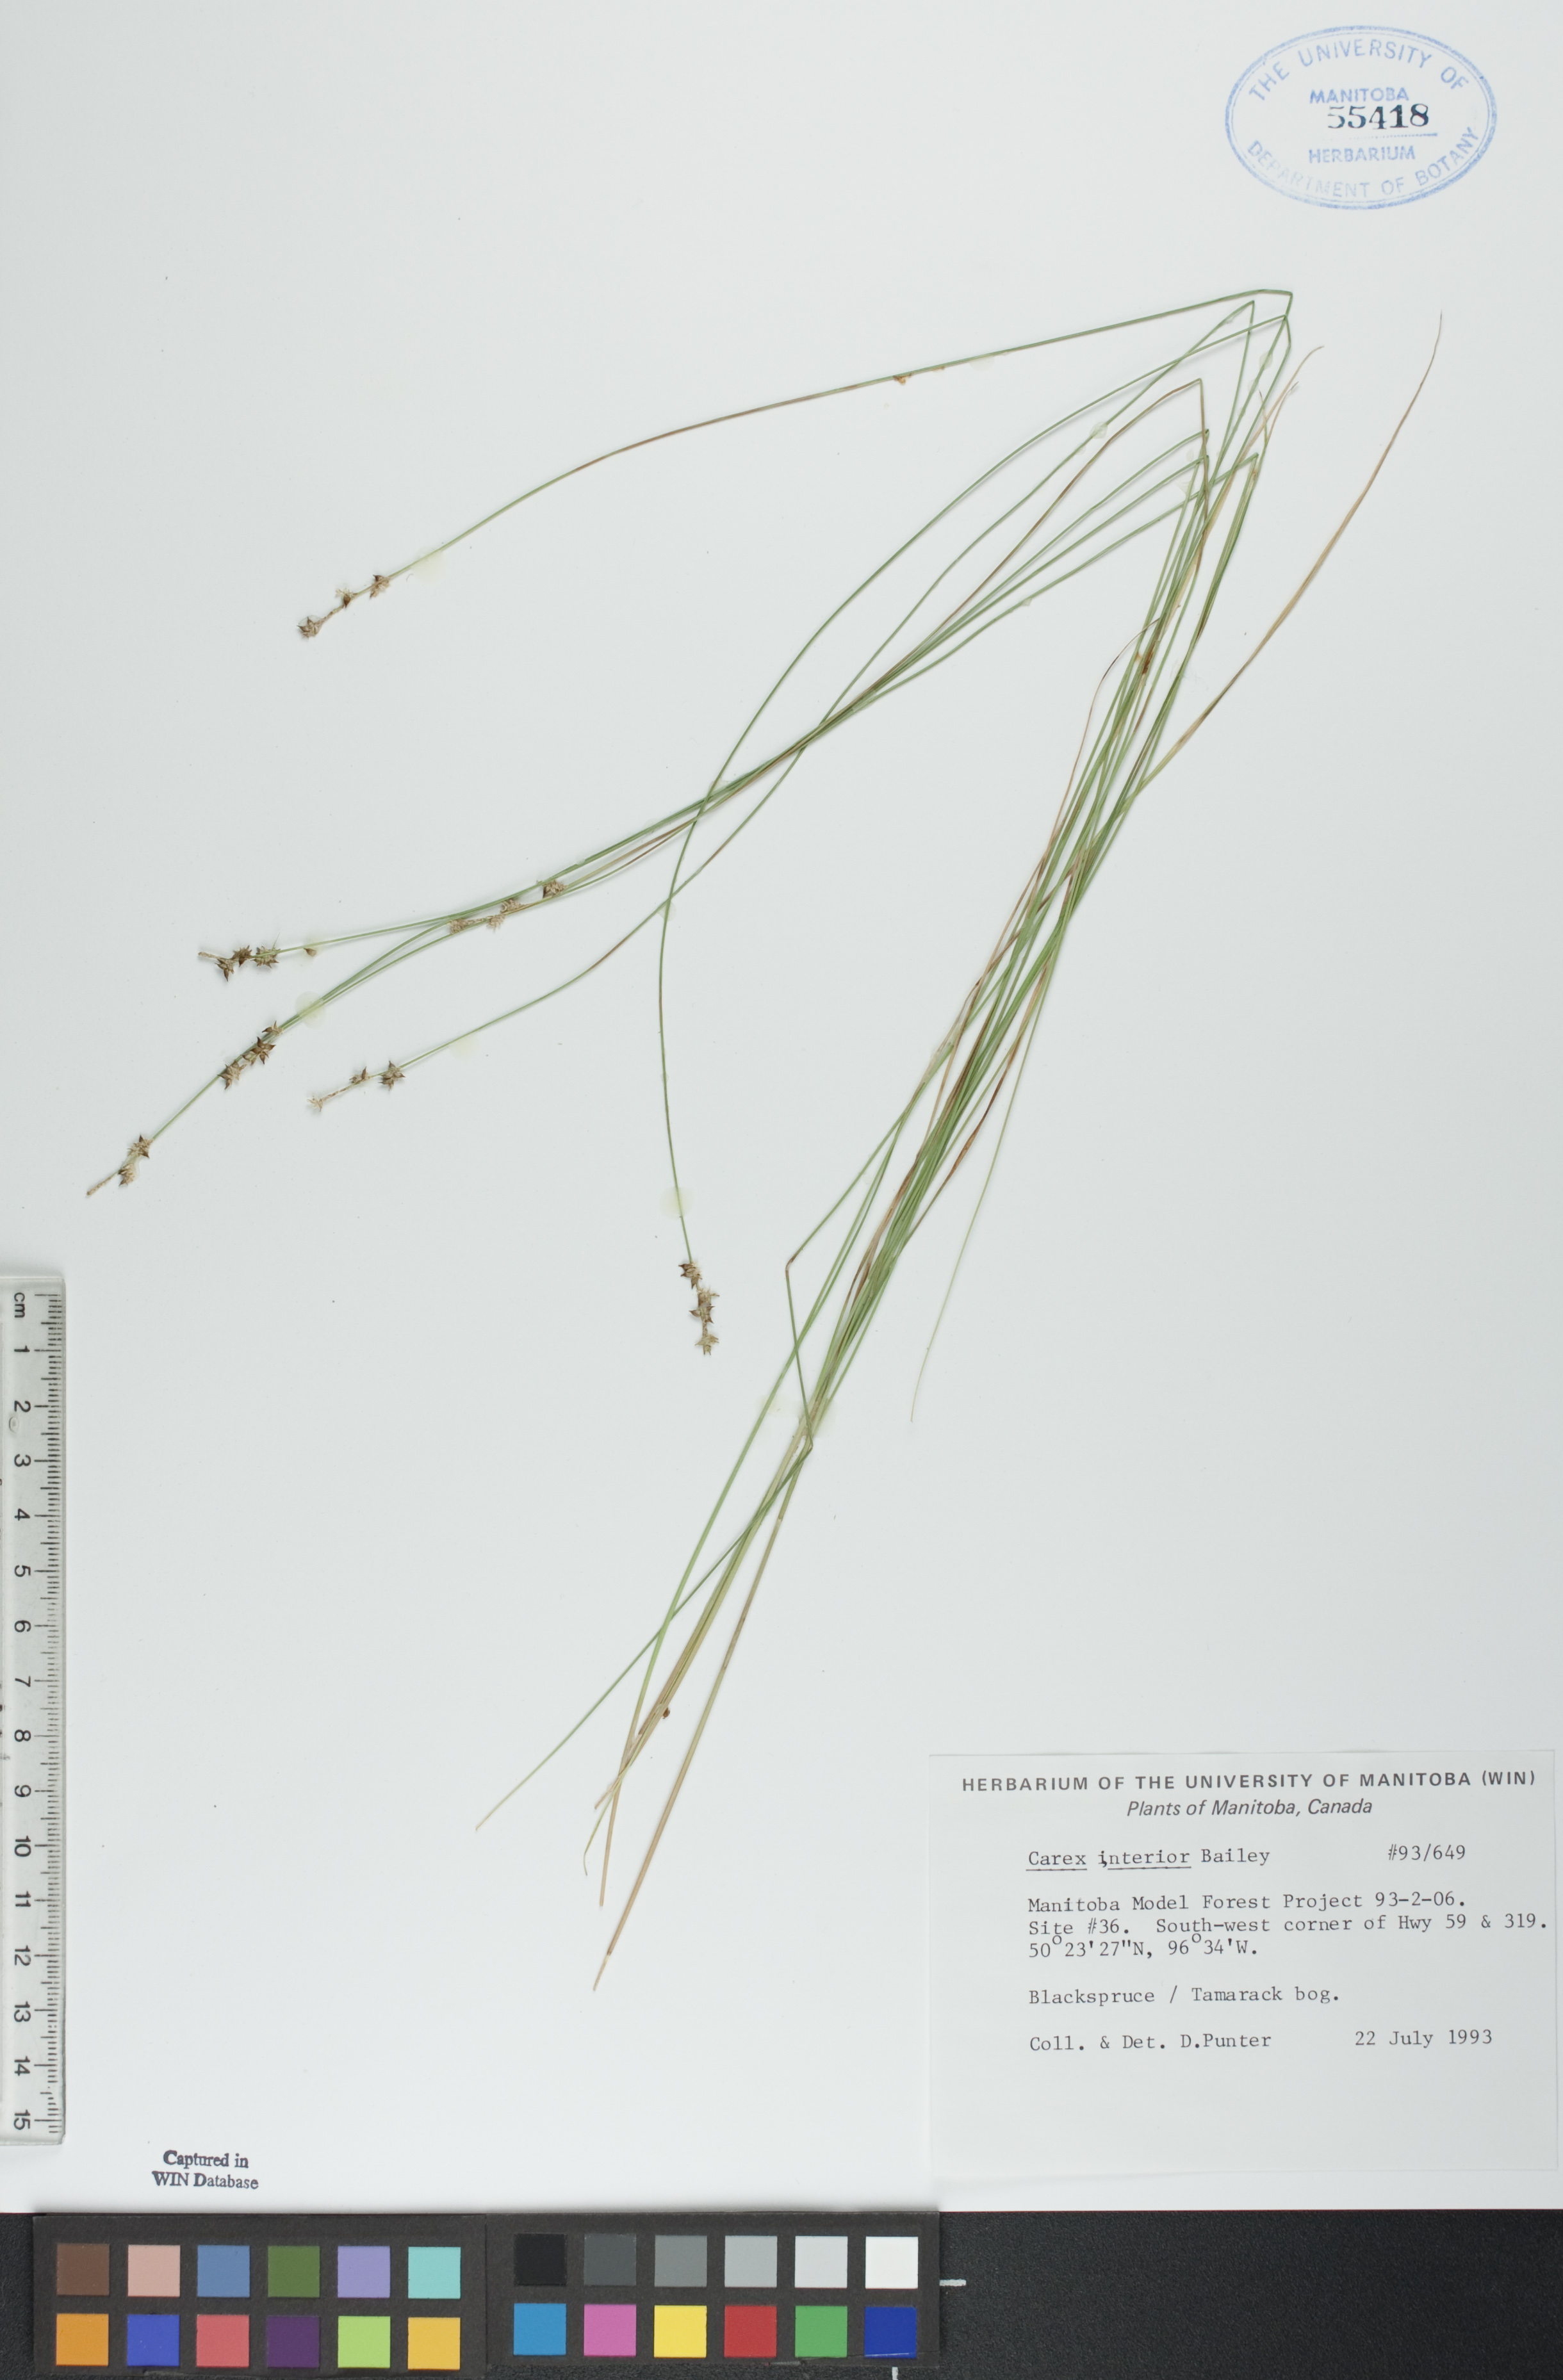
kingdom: Plantae
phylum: Tracheophyta
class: Liliopsida
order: Poales
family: Cyperaceae
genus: Carex
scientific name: Carex interior
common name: Inland sedge
